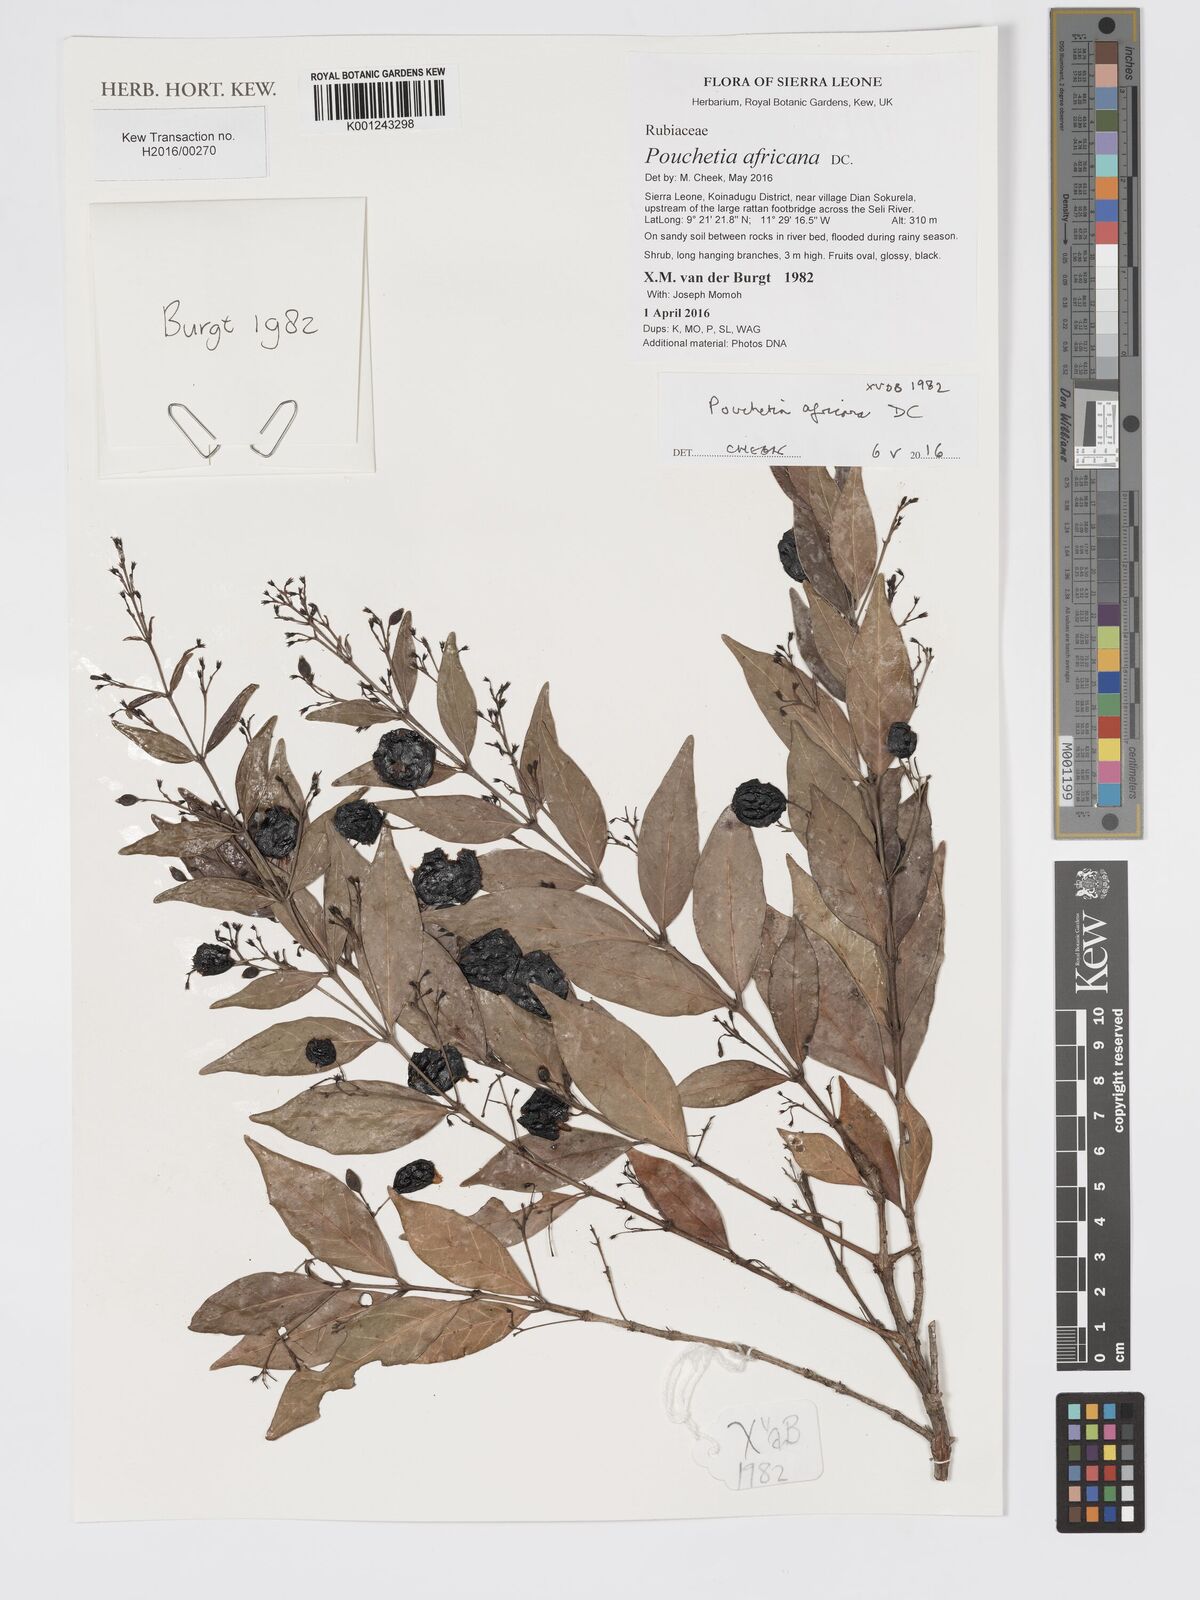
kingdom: Plantae
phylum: Tracheophyta
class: Magnoliopsida
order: Gentianales
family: Rubiaceae
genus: Pouchetia
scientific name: Pouchetia africana
